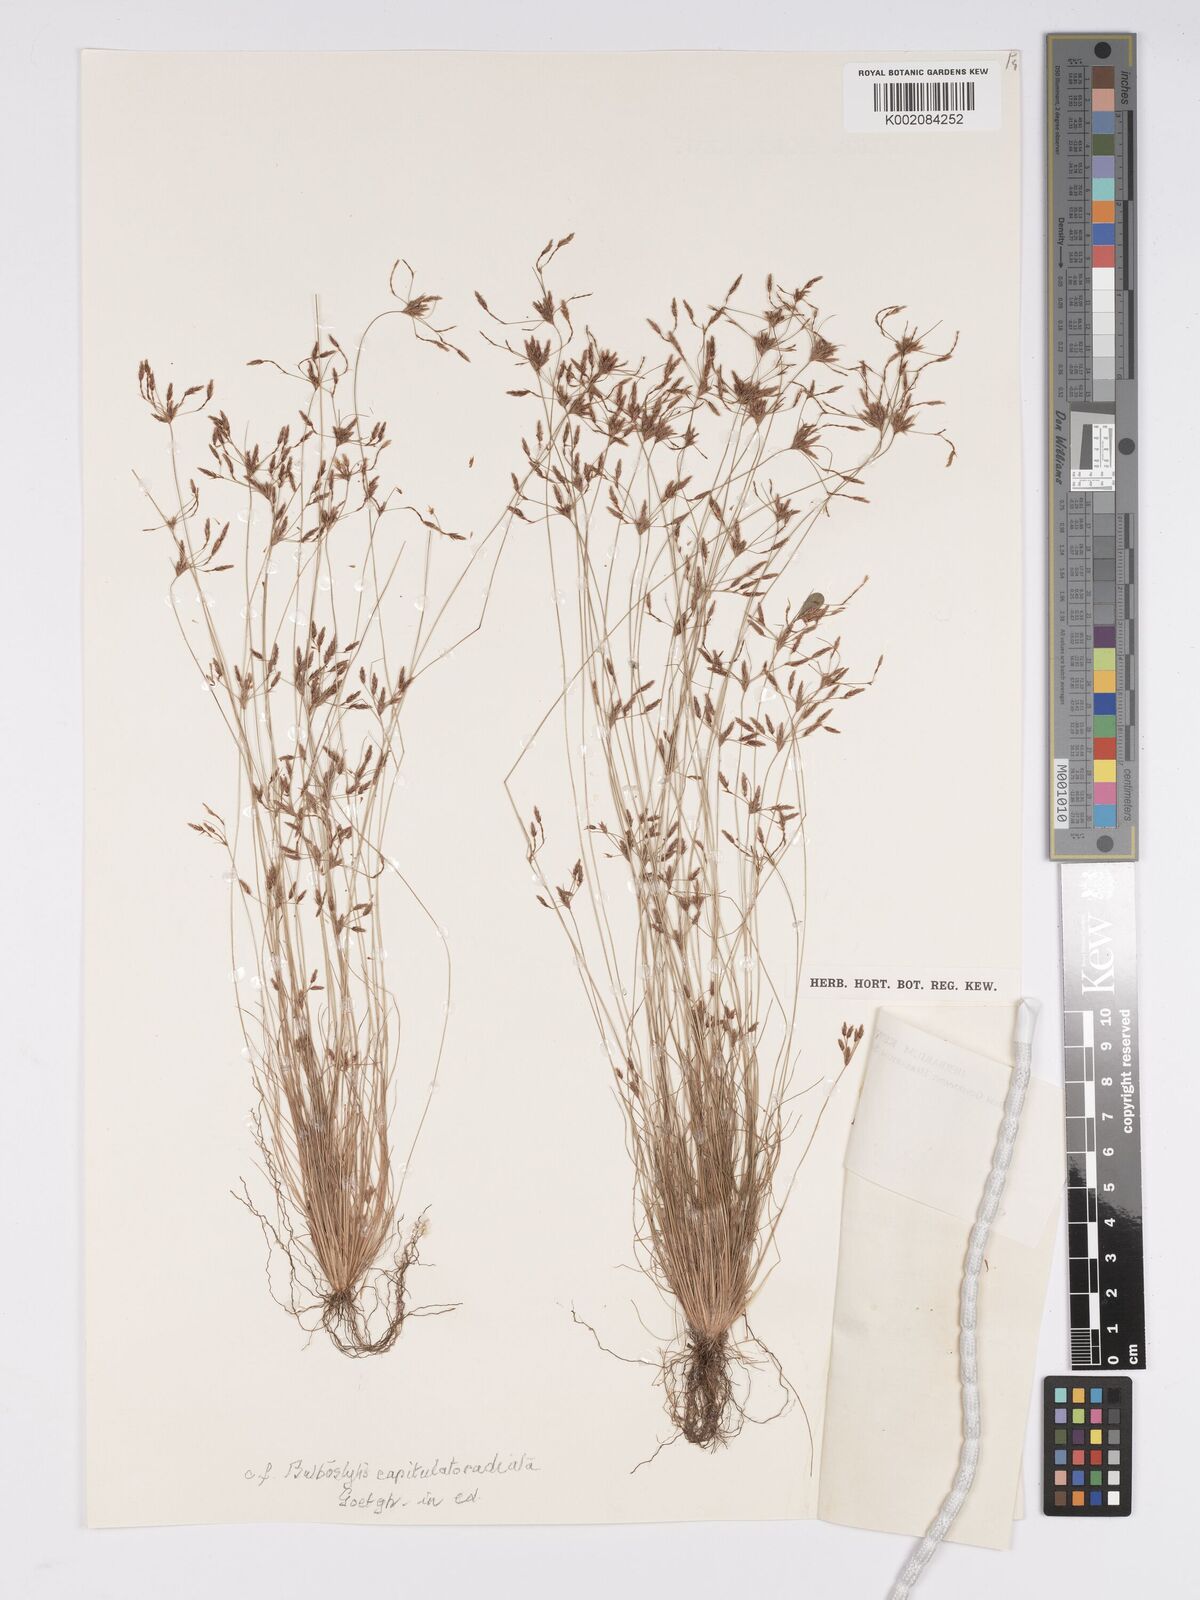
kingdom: Plantae
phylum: Tracheophyta
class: Liliopsida
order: Poales
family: Cyperaceae
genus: Bulbostylis
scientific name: Bulbostylis
